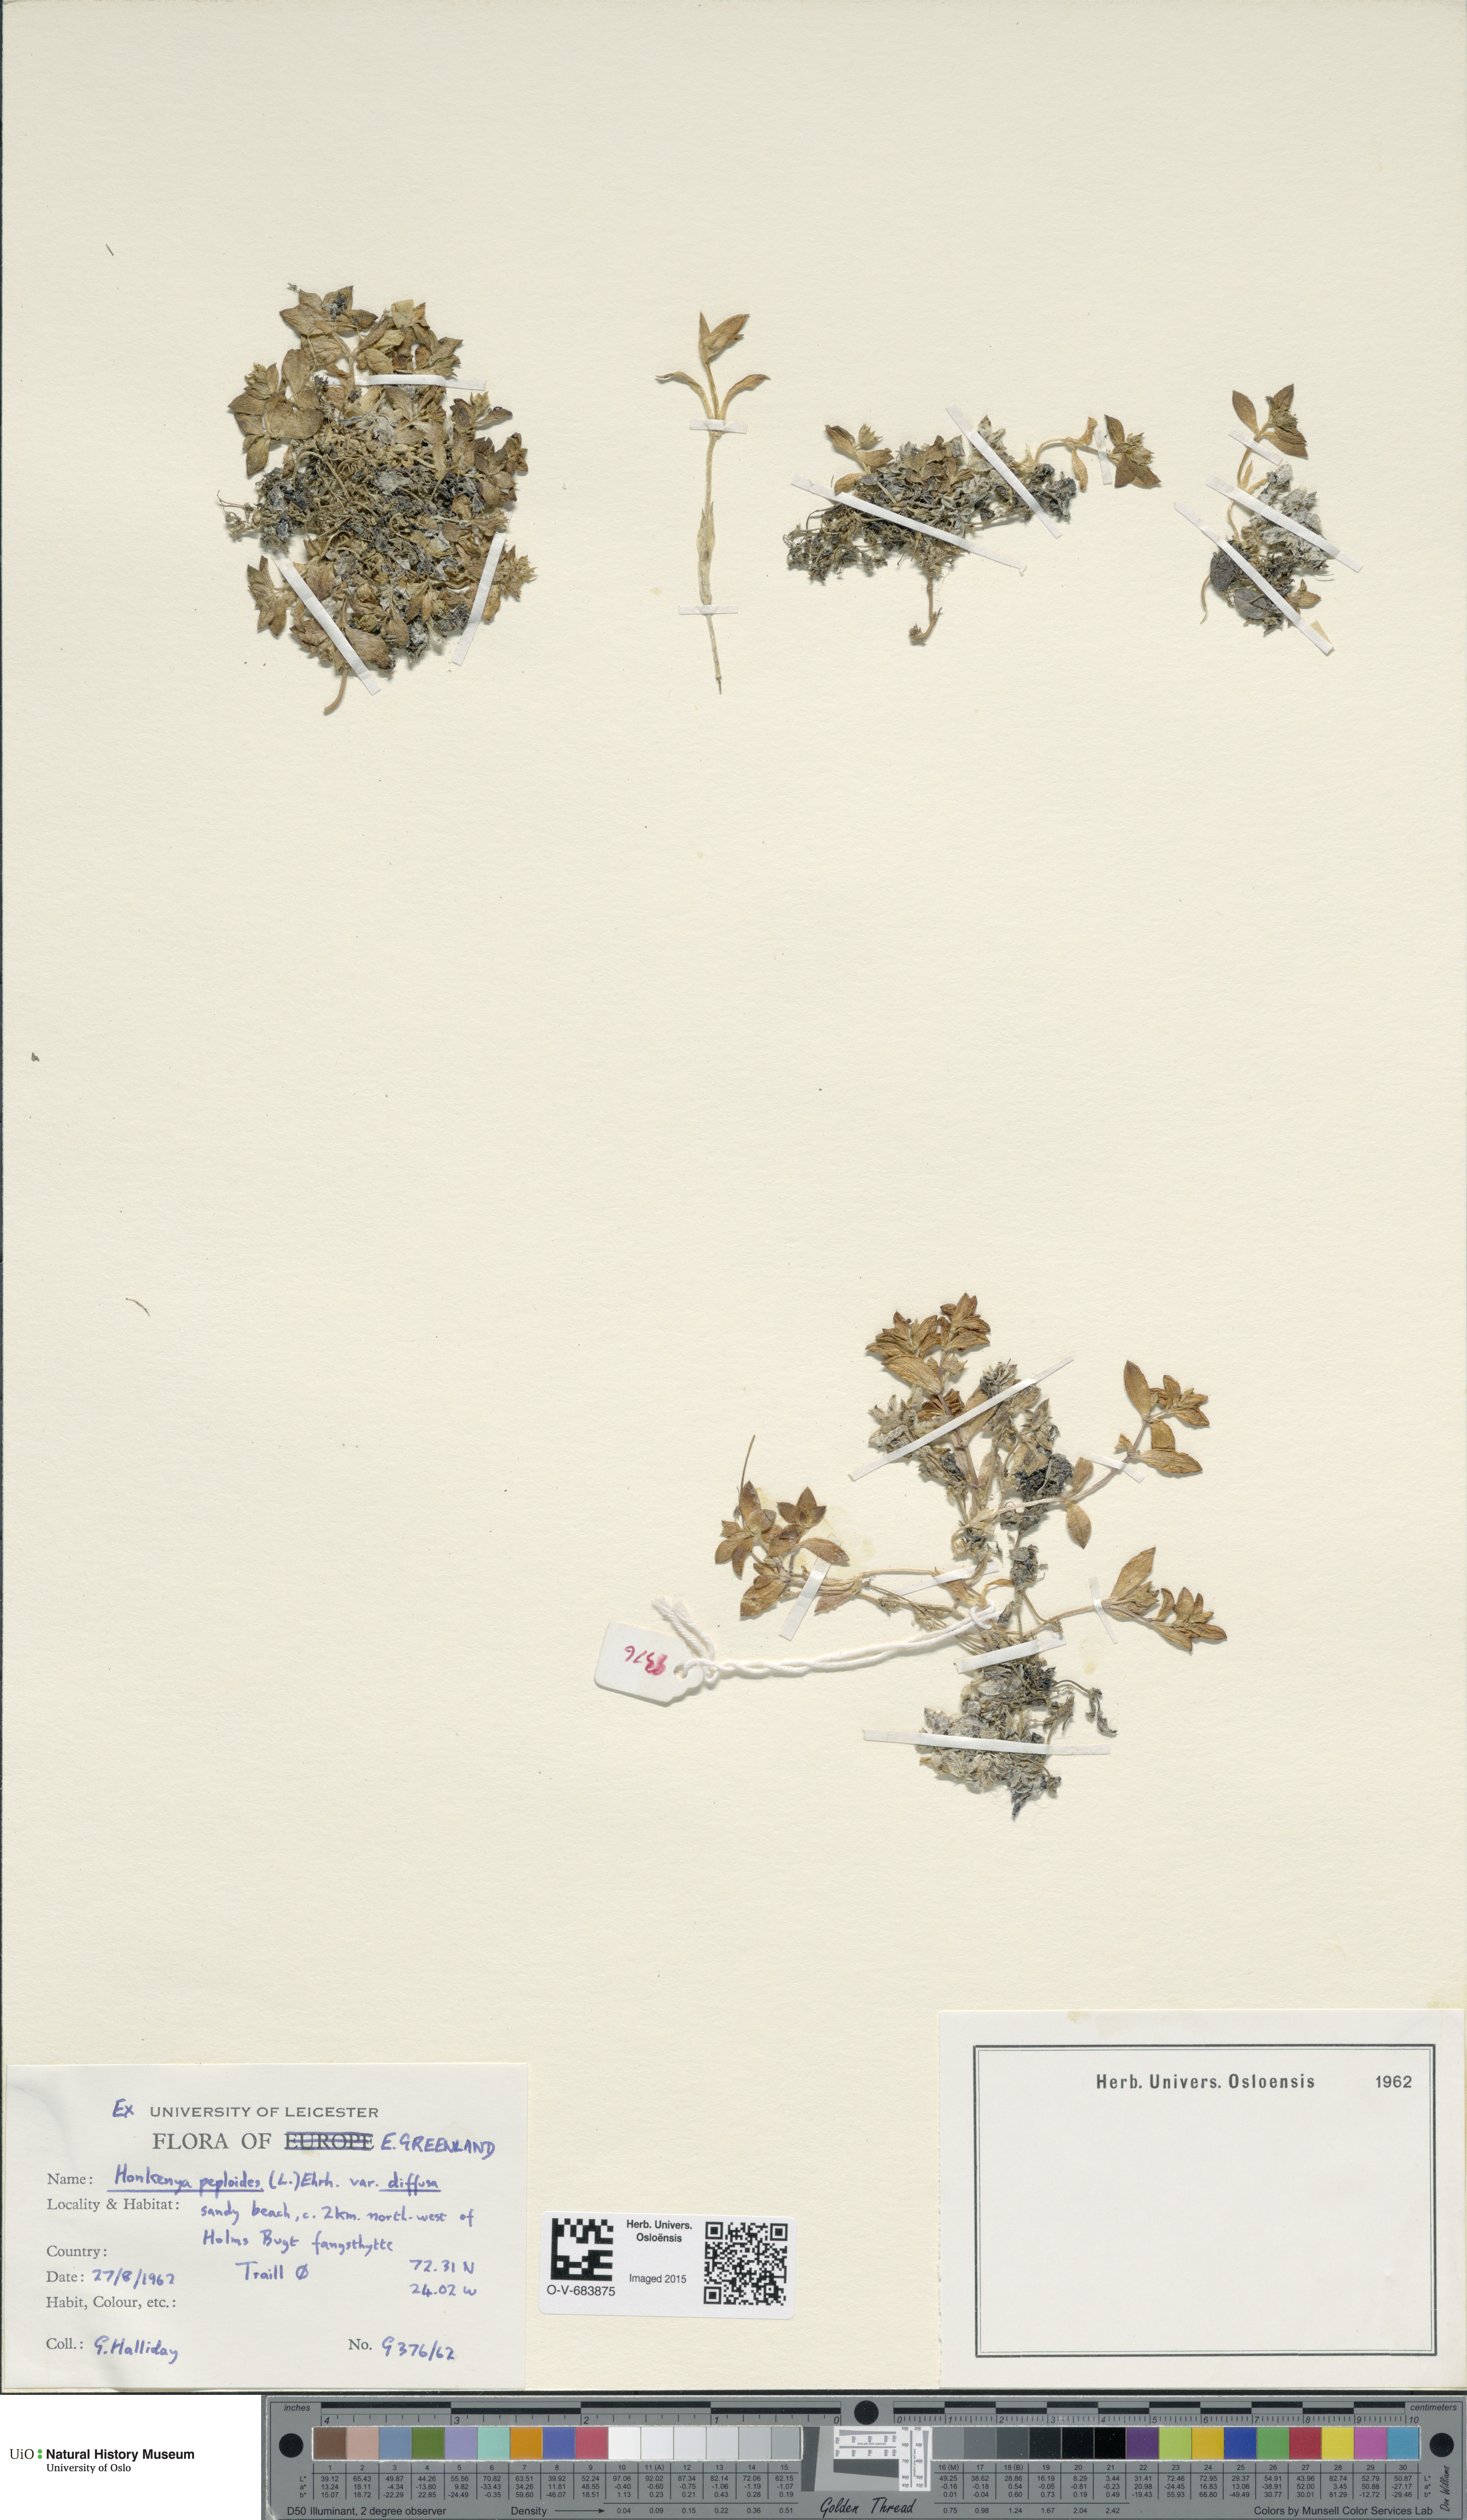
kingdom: Plantae
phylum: Tracheophyta
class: Magnoliopsida
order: Caryophyllales
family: Caryophyllaceae
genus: Honckenya
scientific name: Honckenya peploides
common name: Sea sandwort
